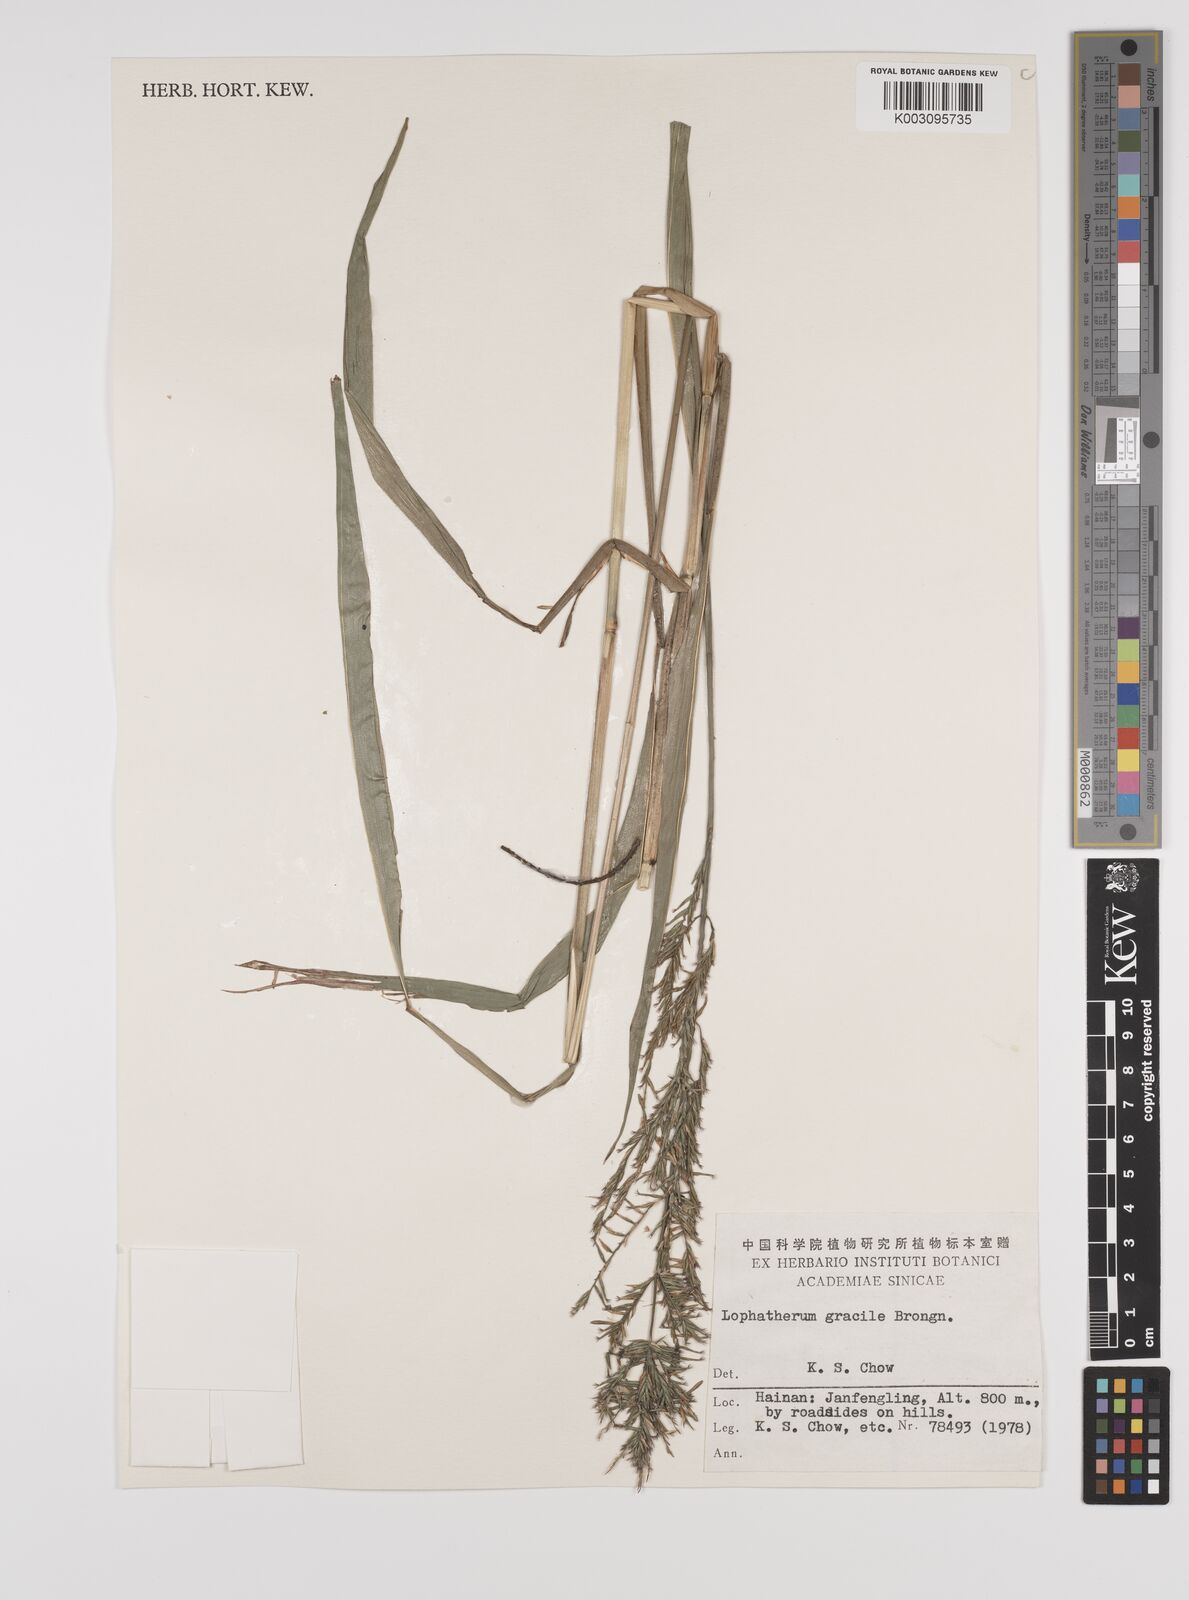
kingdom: Plantae
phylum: Tracheophyta
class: Liliopsida
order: Poales
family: Poaceae
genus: Lophatherum
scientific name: Lophatherum gracile
